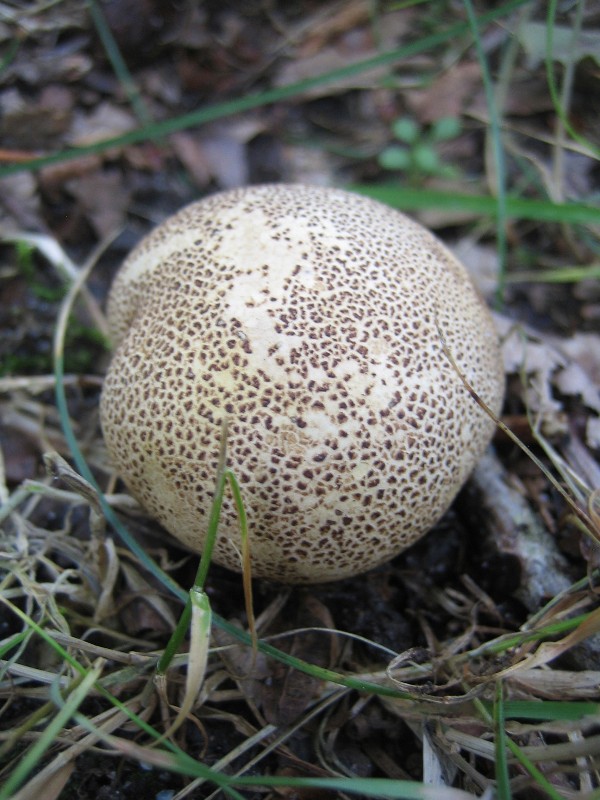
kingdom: Fungi
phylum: Basidiomycota
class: Agaricomycetes
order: Boletales
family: Sclerodermataceae
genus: Scleroderma
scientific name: Scleroderma areolatum
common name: plettet bruskbold
